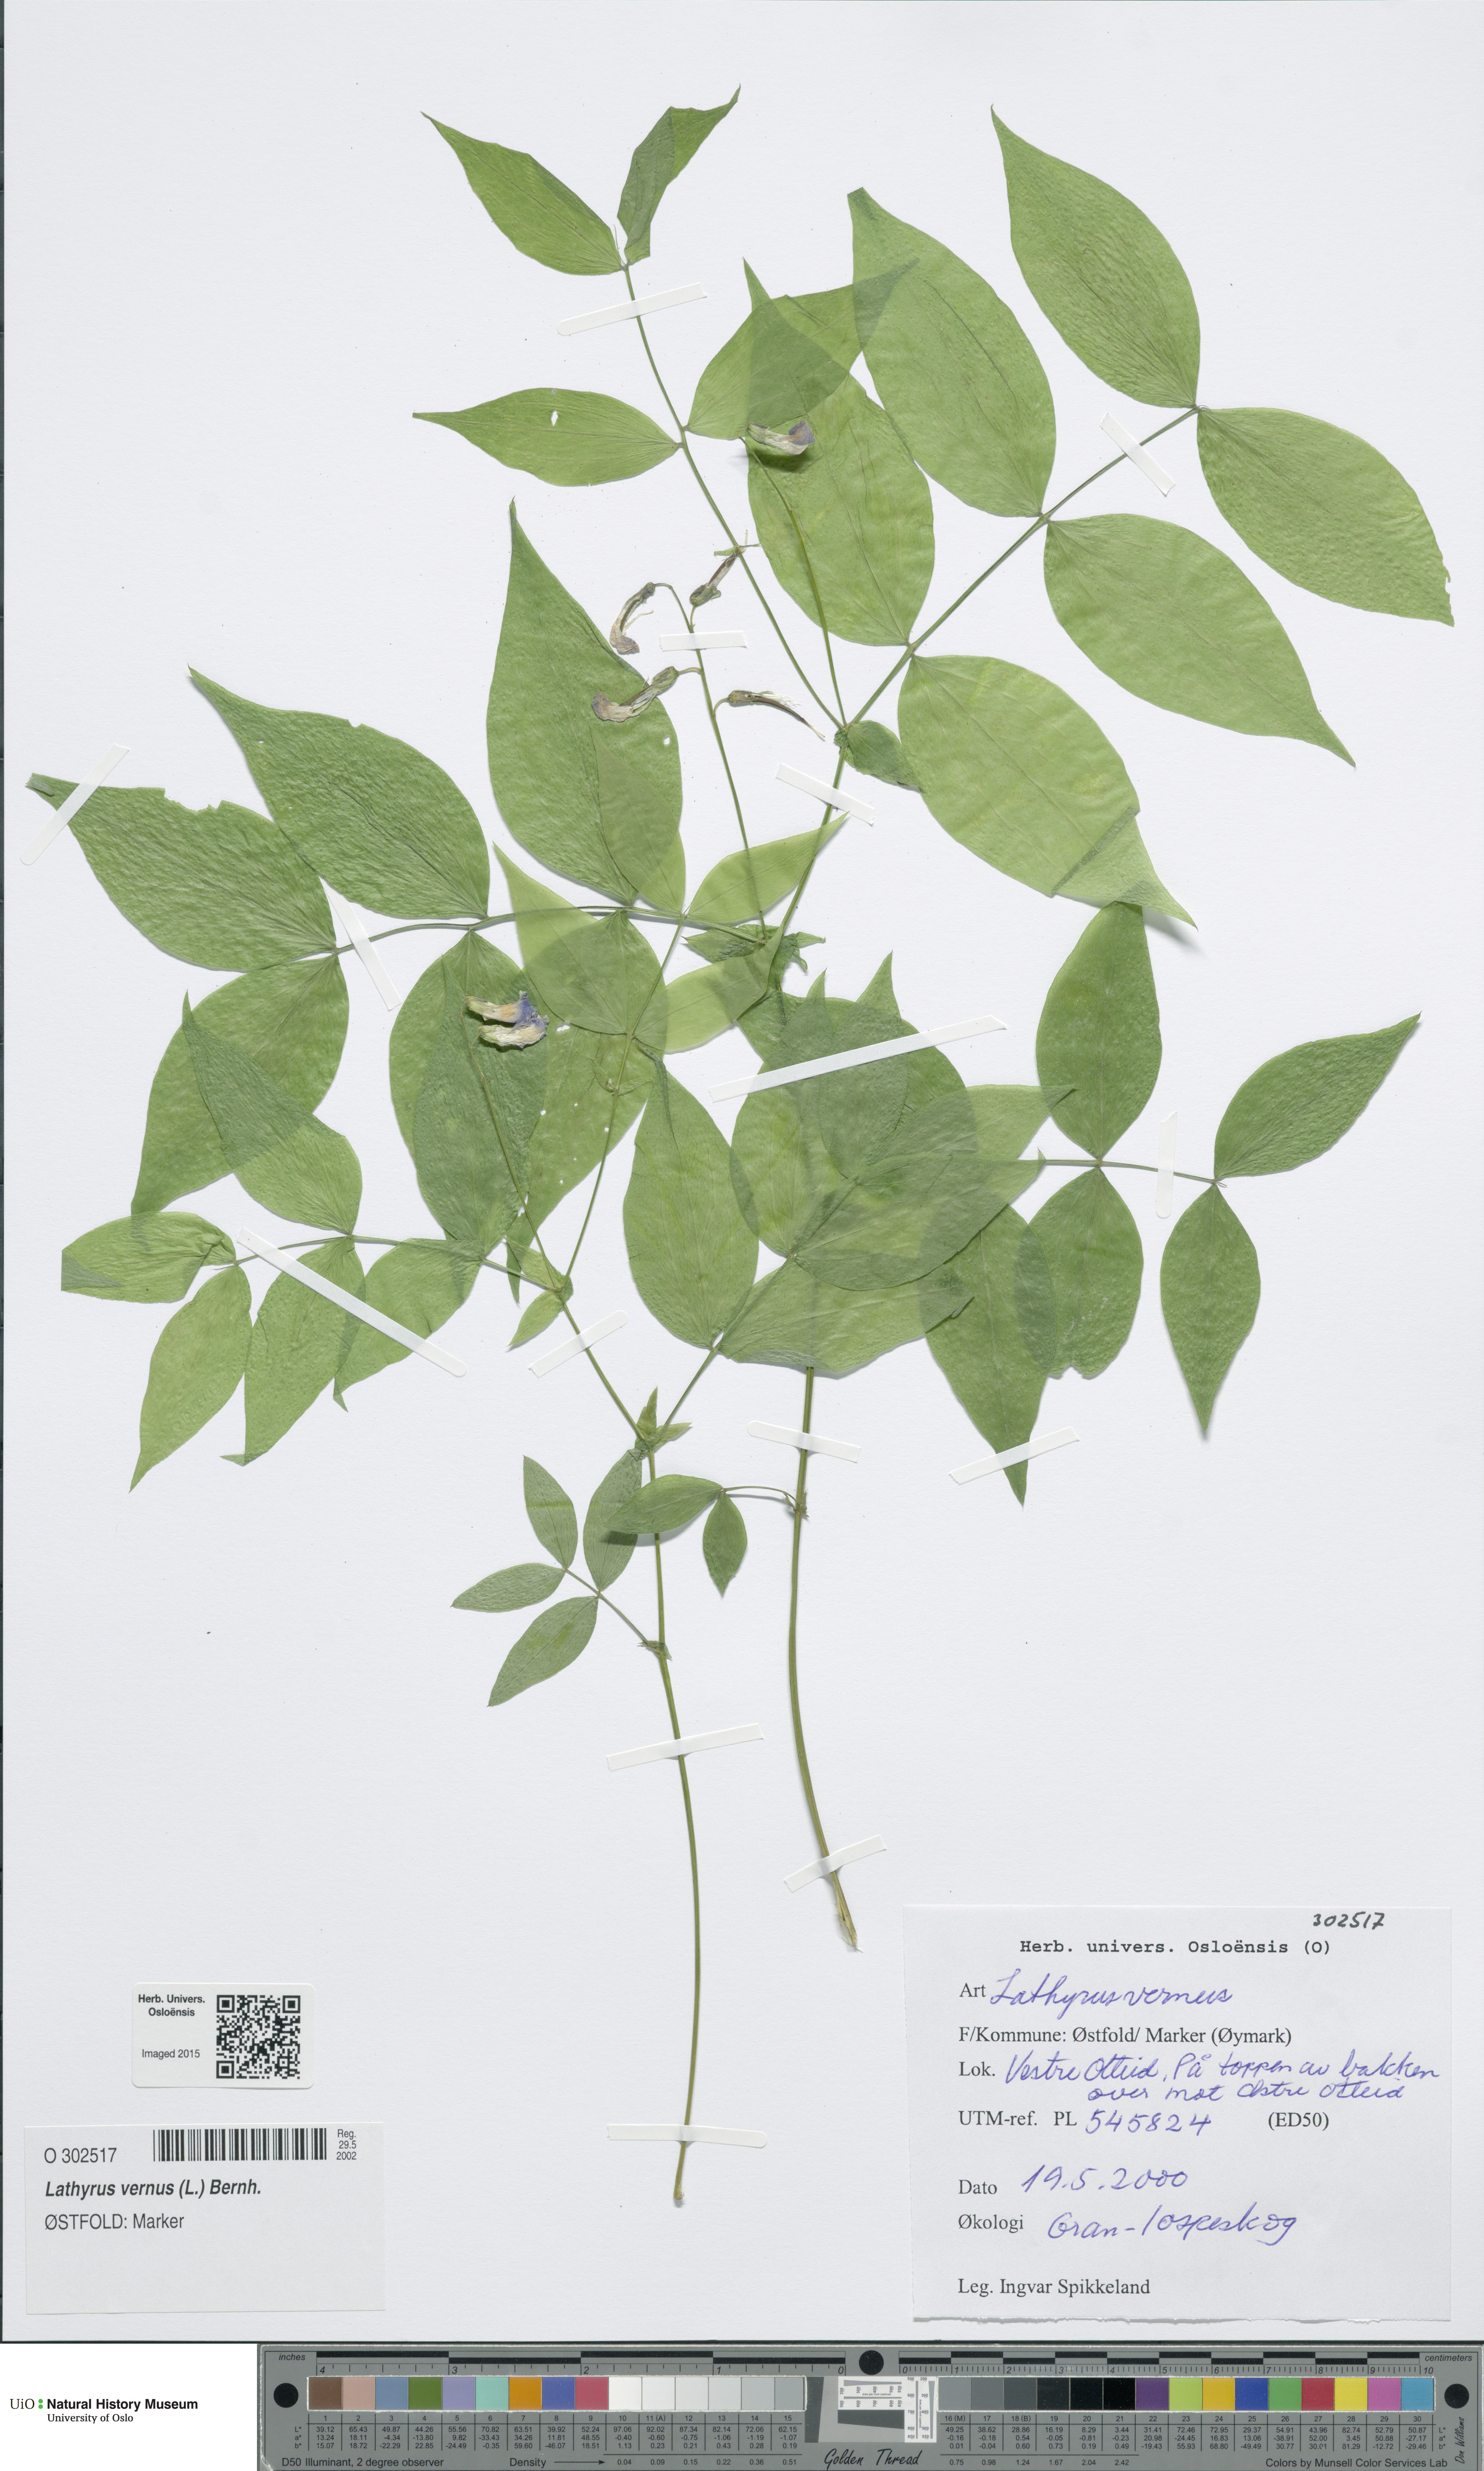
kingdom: Plantae
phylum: Tracheophyta
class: Magnoliopsida
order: Fabales
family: Fabaceae
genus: Lathyrus
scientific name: Lathyrus vernus
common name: Spring pea
